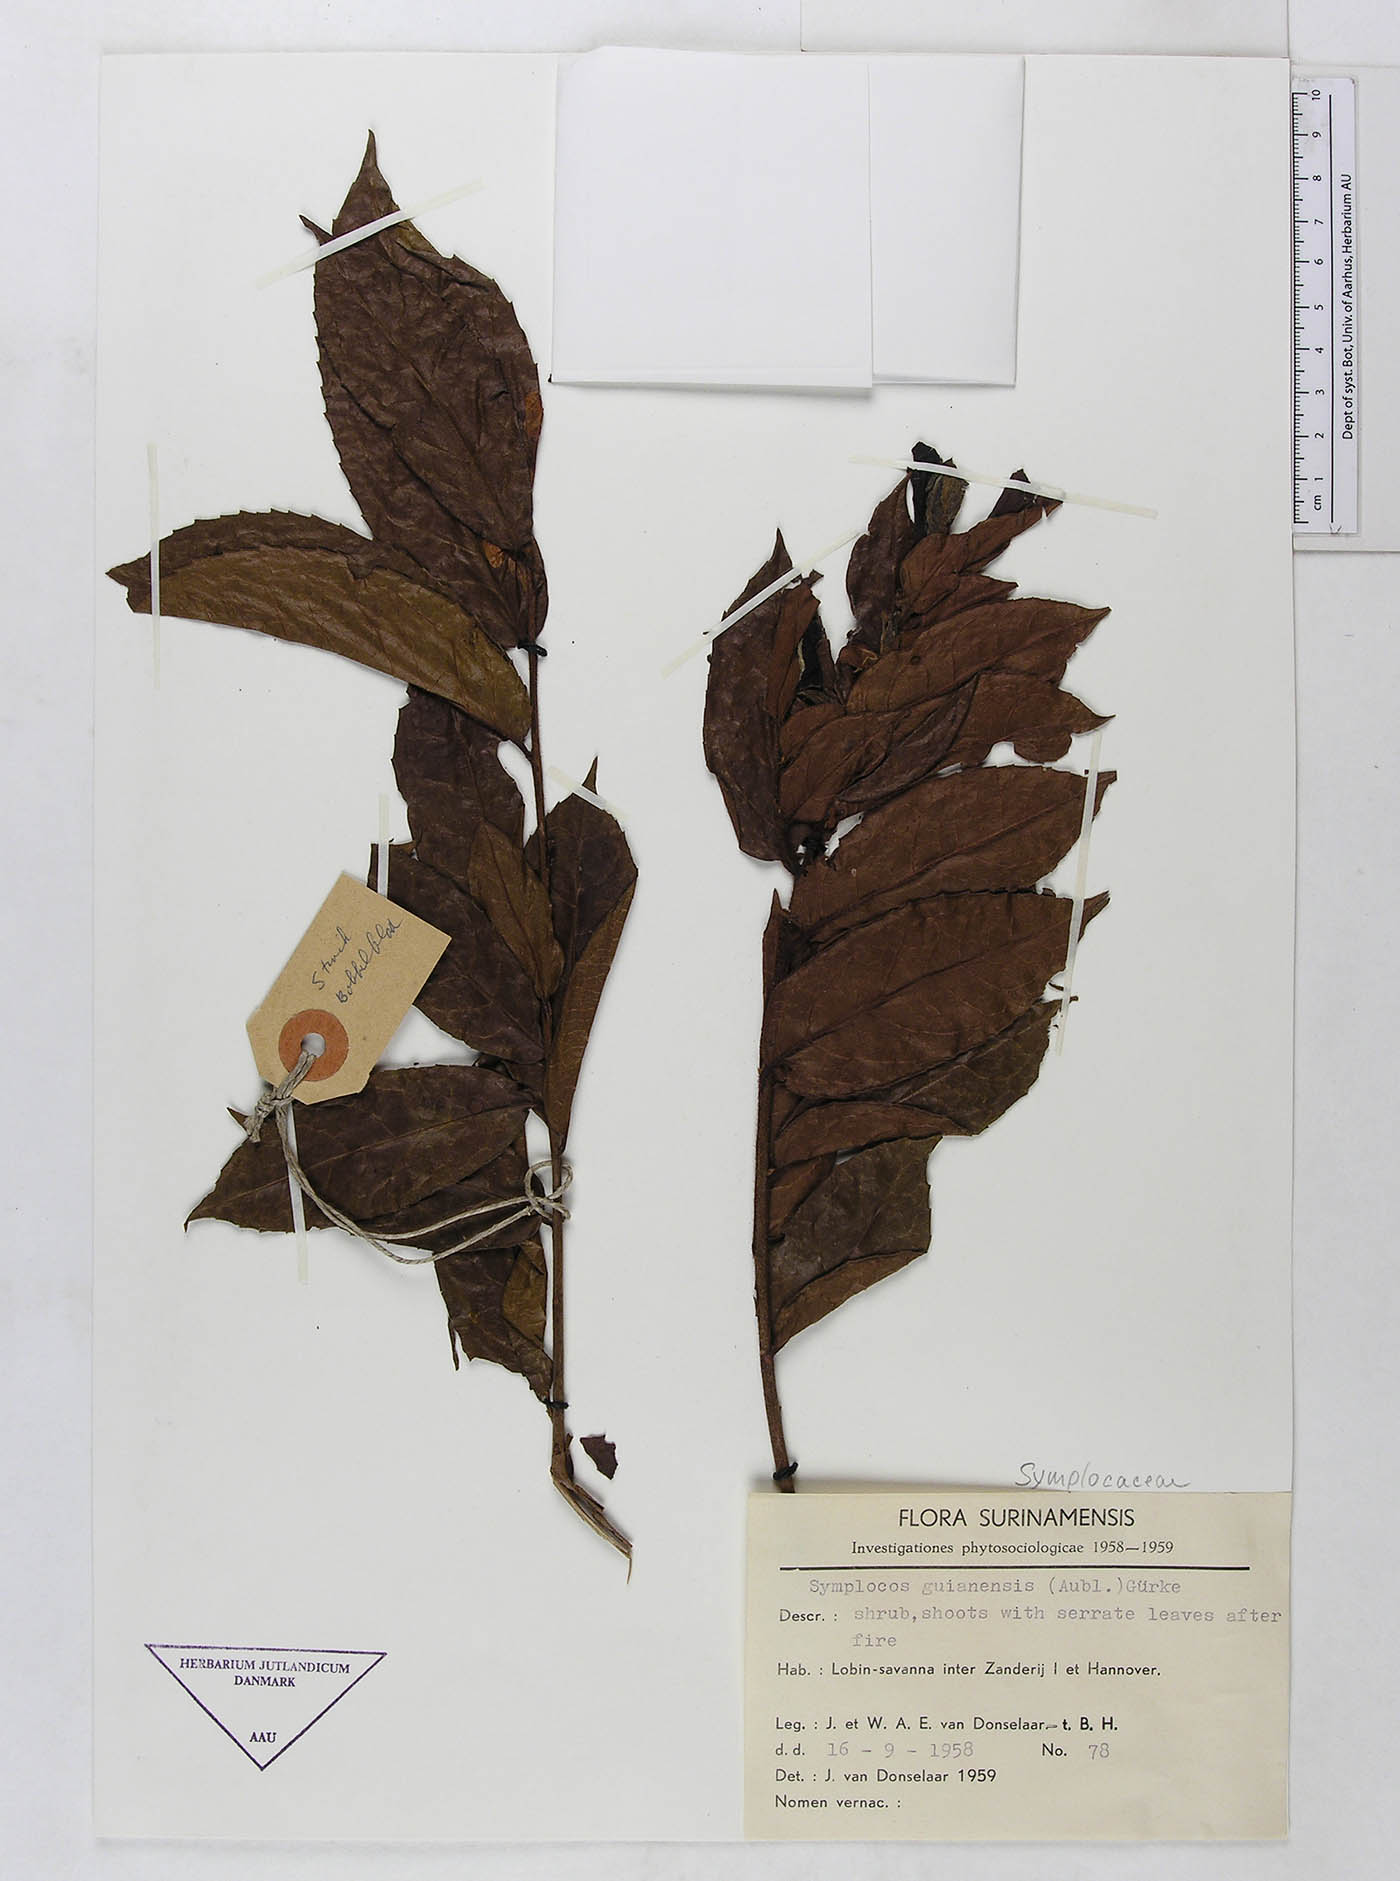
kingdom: Plantae
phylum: Tracheophyta
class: Magnoliopsida
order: Ericales
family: Symplocaceae
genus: Symplocos
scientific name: Symplocos guianensis
